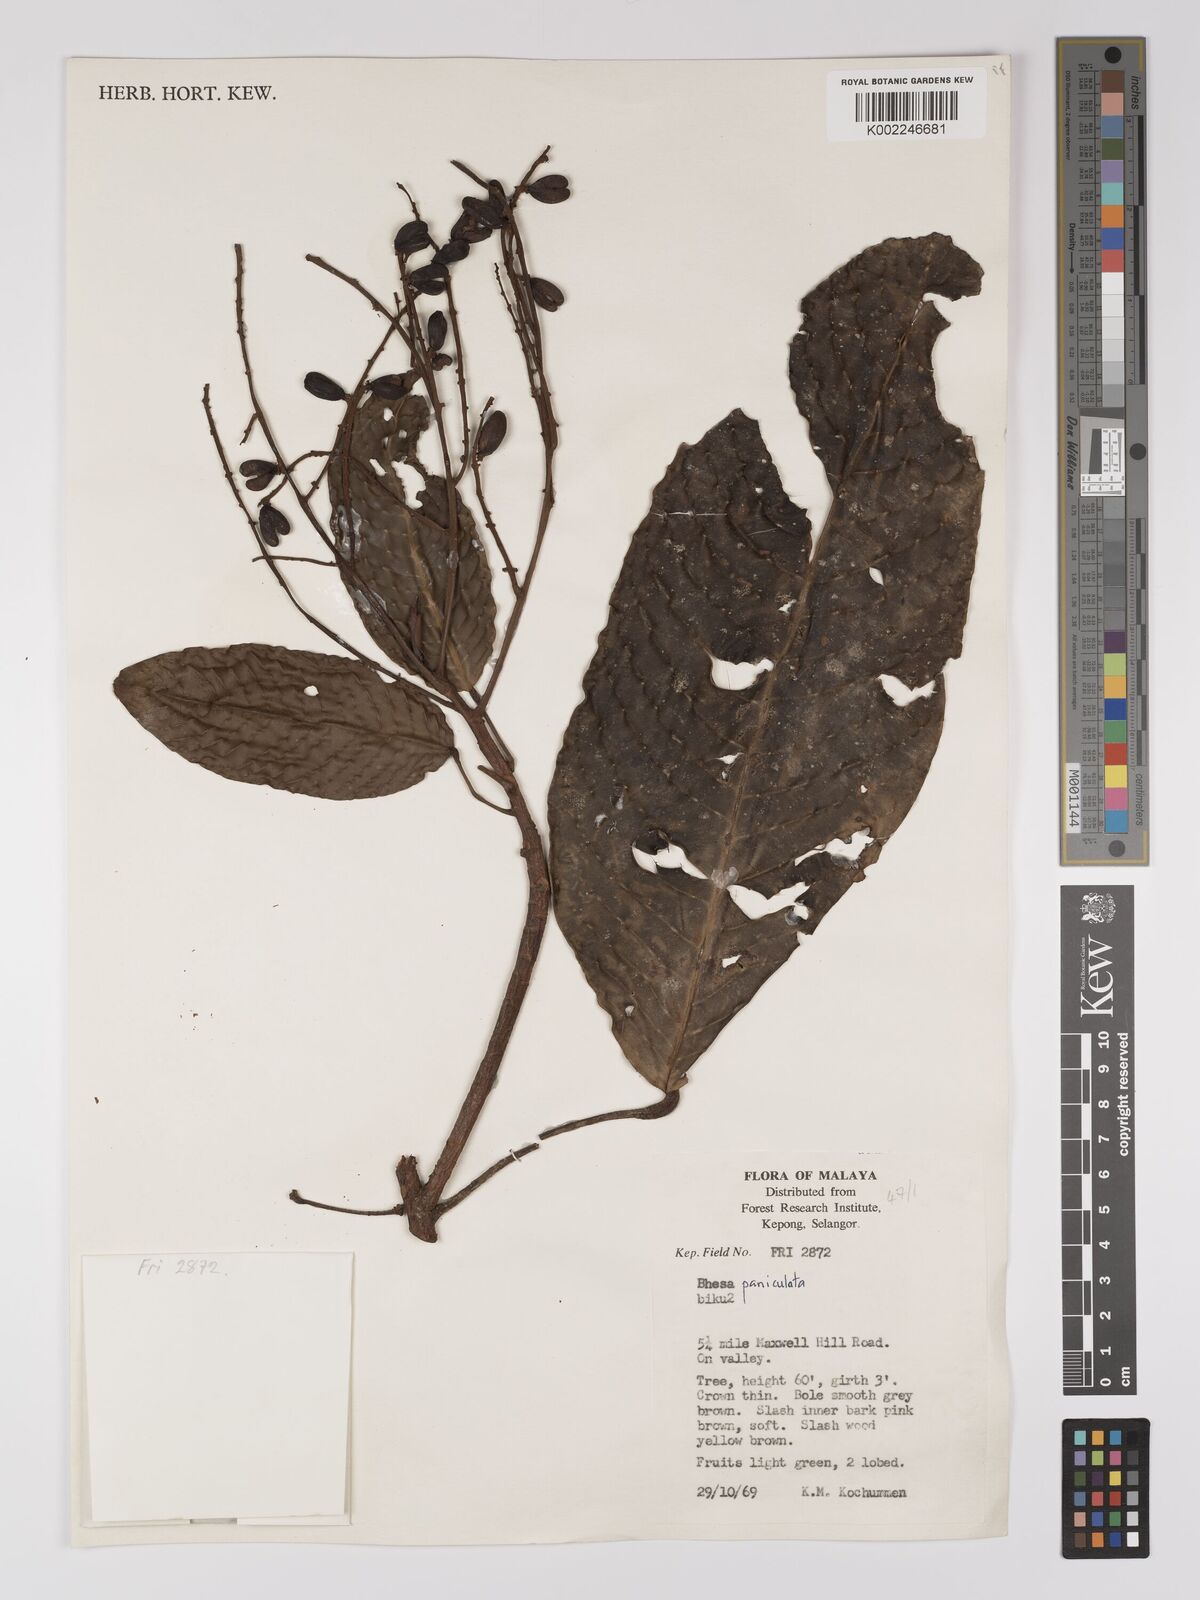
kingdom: Plantae
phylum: Tracheophyta
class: Magnoliopsida
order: Malpighiales
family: Centroplacaceae
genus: Bhesa
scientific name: Bhesa paniculata
